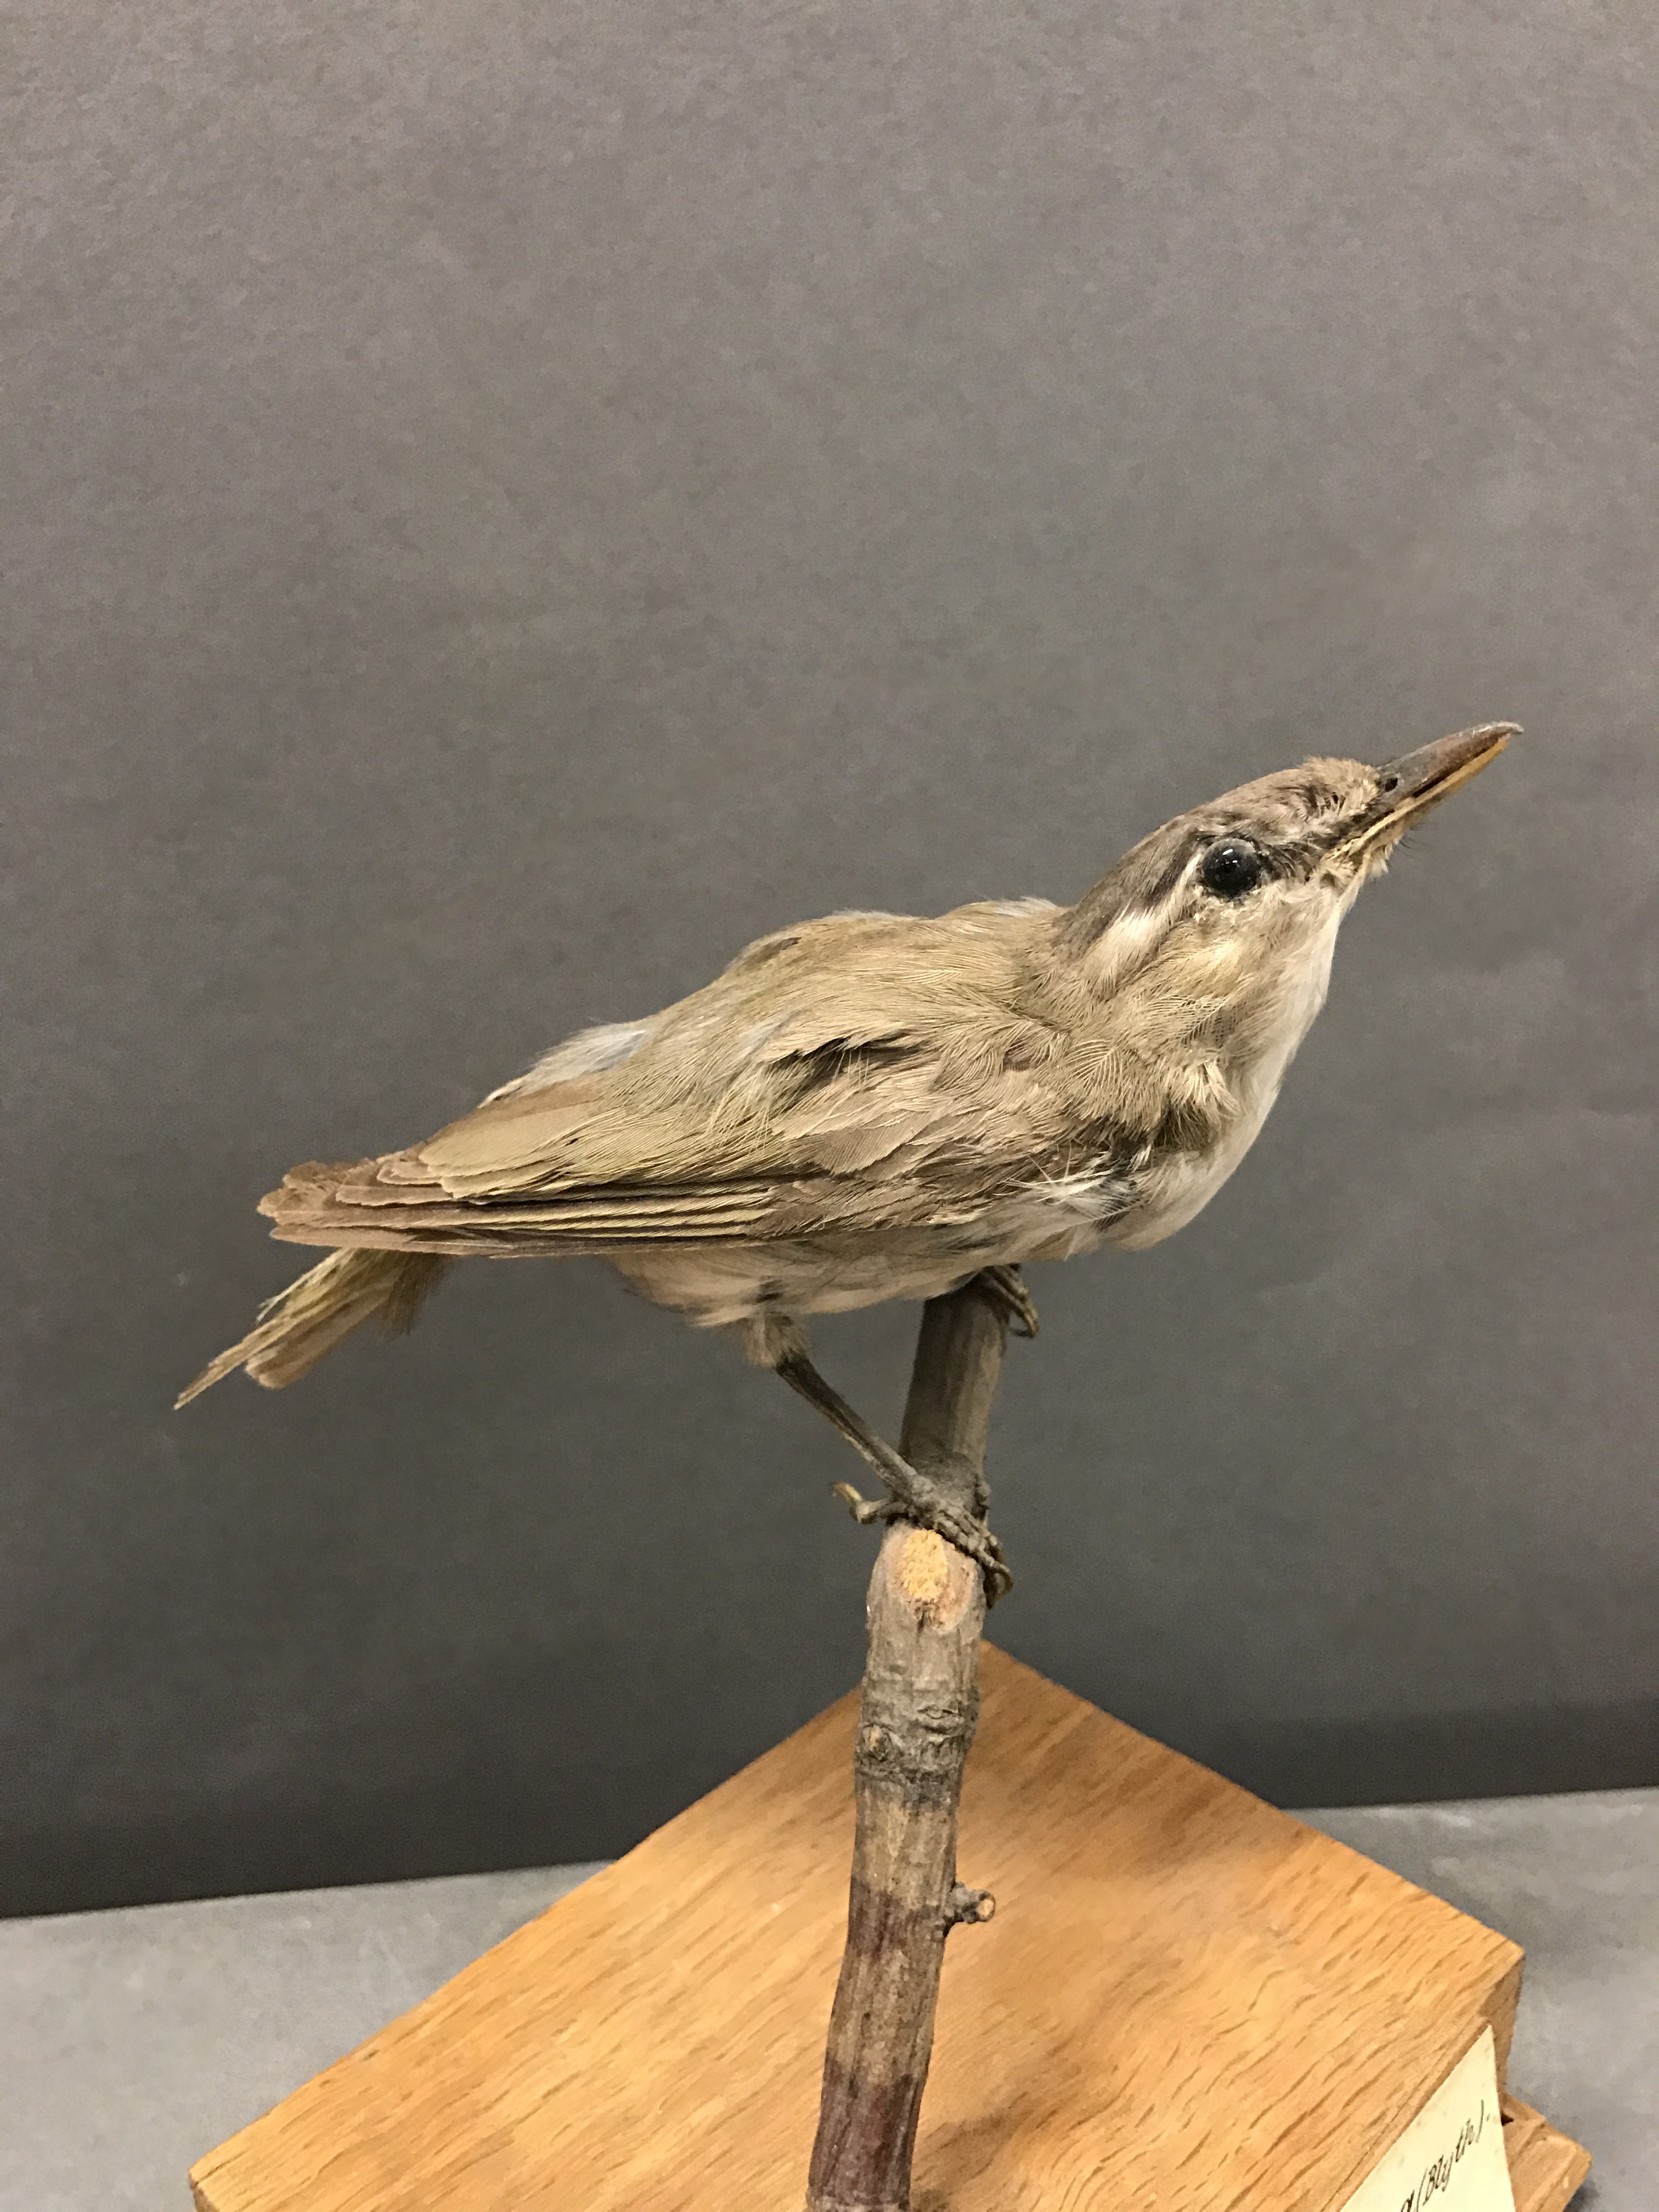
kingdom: Animalia
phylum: Chordata
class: Aves
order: Passeriformes
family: Acrocephalidae
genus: Acrocephalus
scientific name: Acrocephalus bistrigiceps
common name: Black-browed reed warbler
